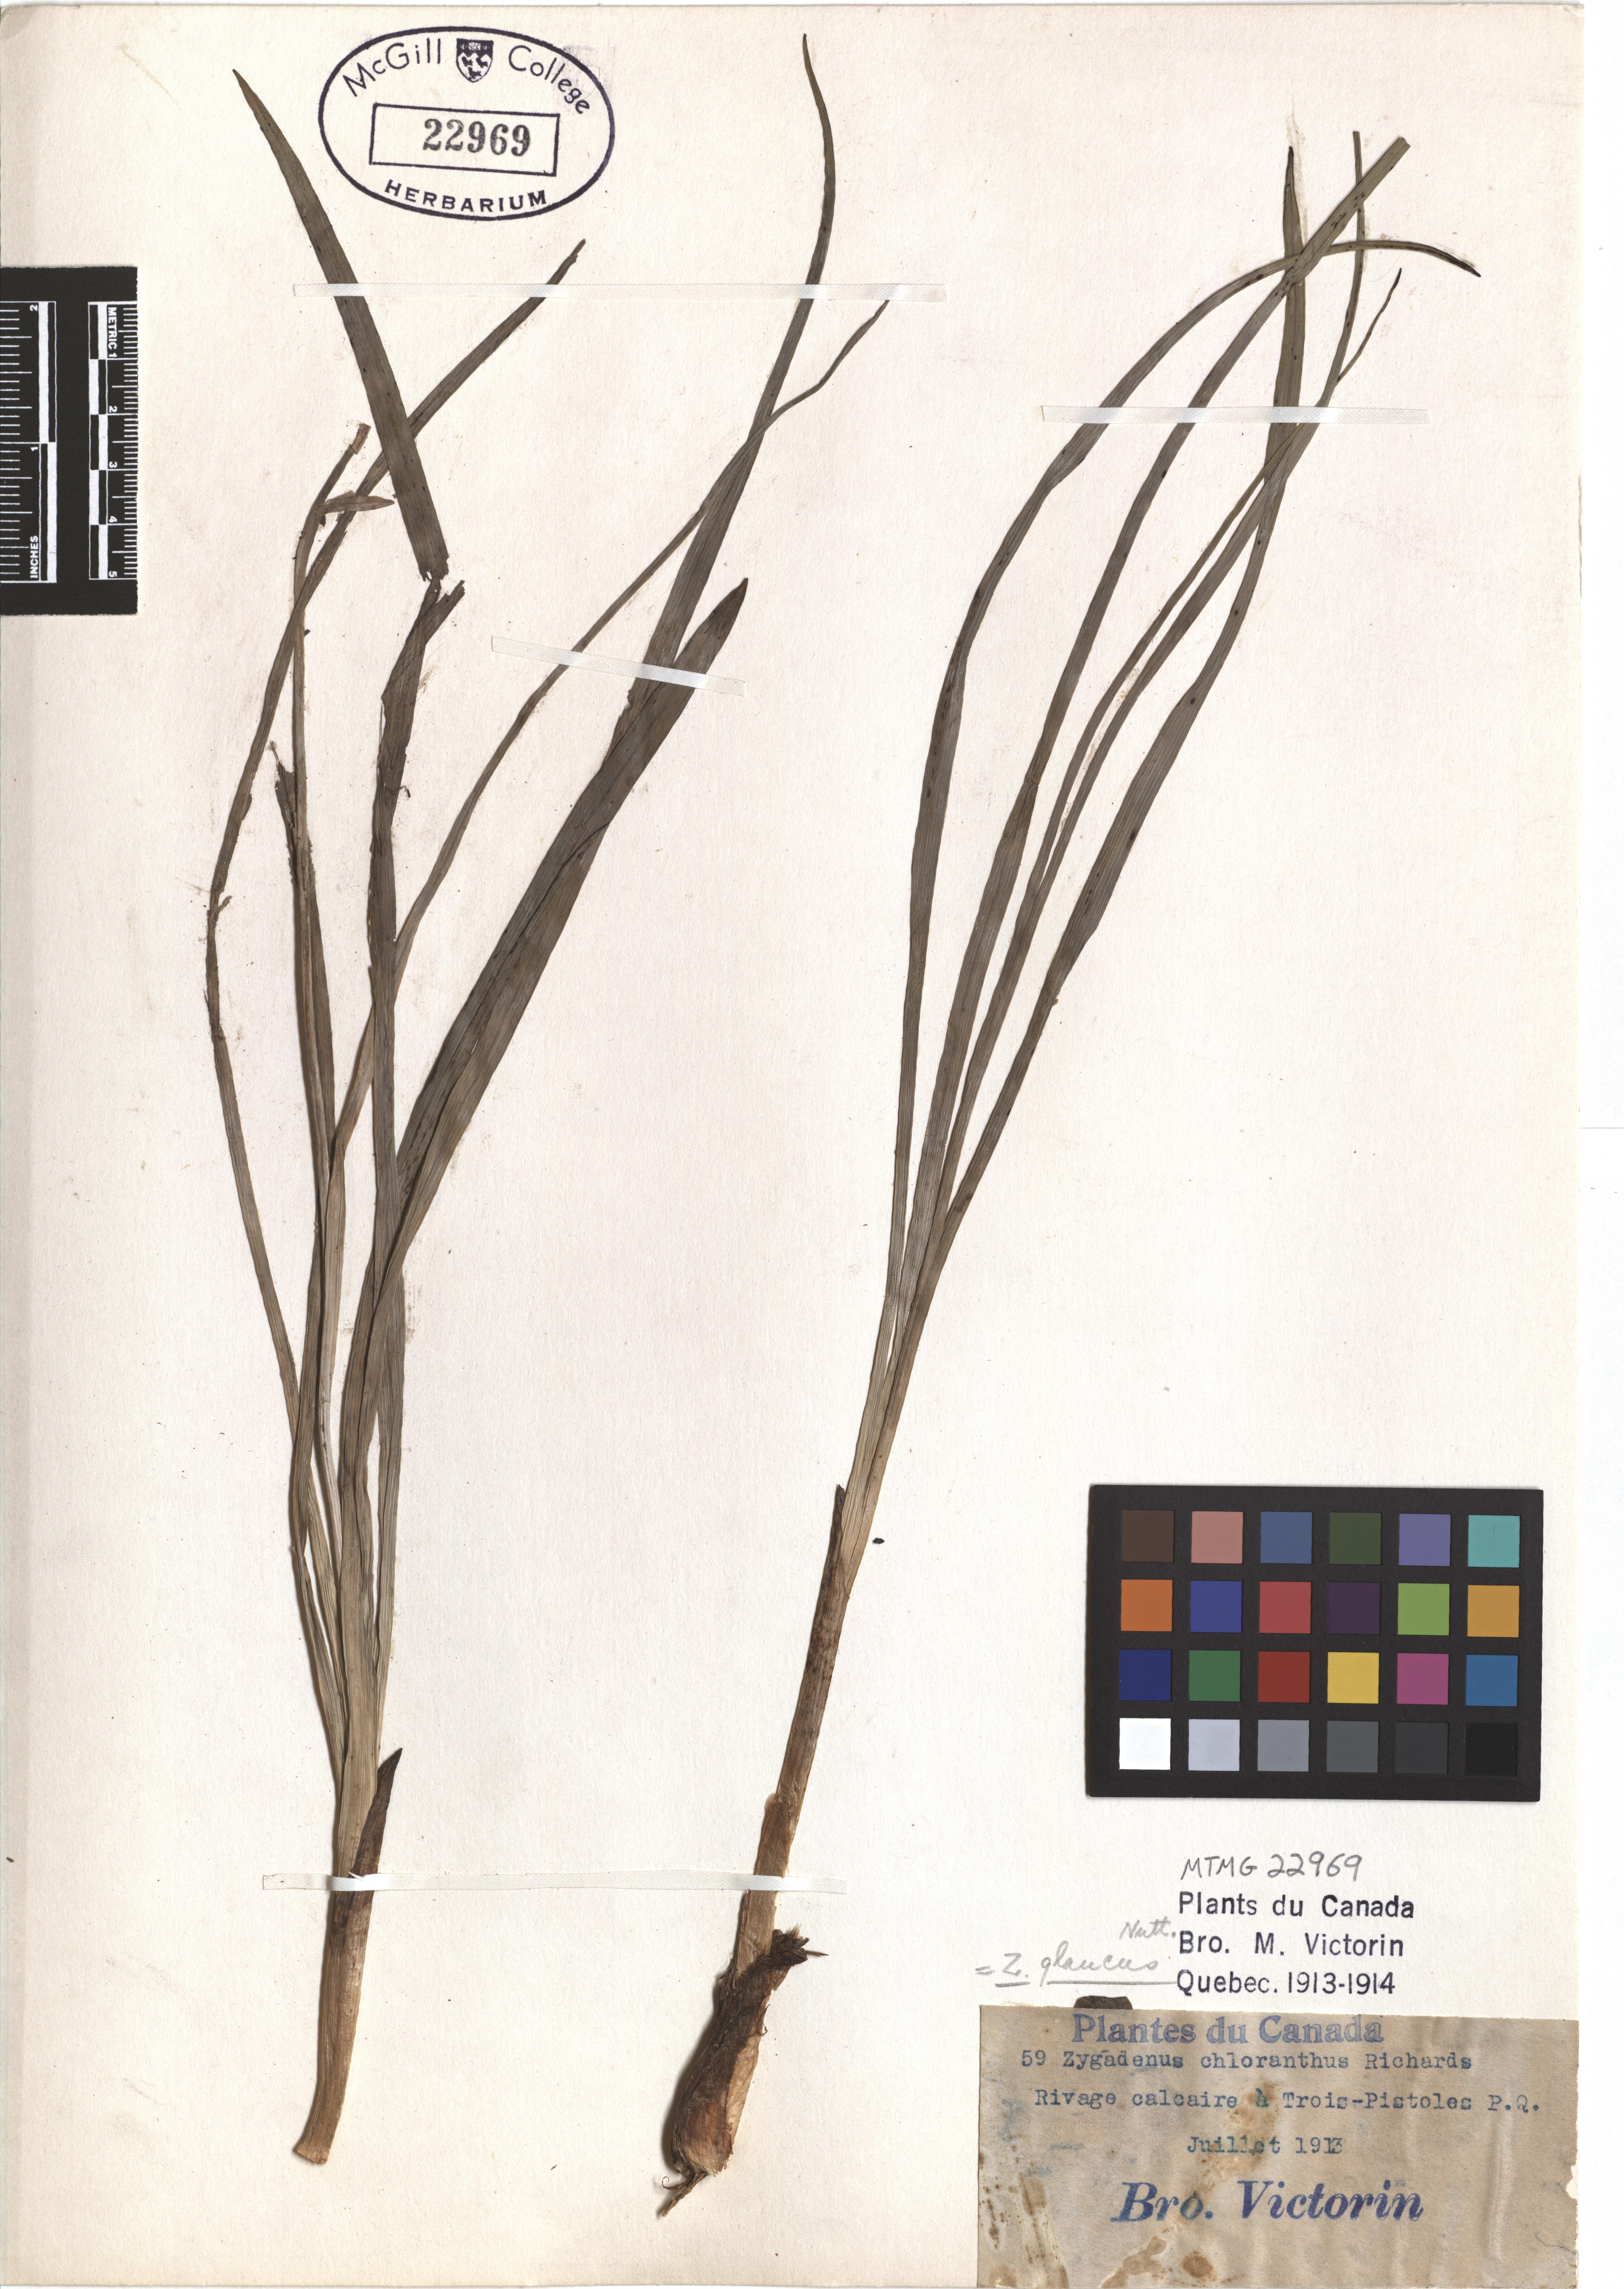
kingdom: Plantae
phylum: Tracheophyta
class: Liliopsida
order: Liliales
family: Melanthiaceae
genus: Anticlea
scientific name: Anticlea elegans
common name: Mountain death camas
